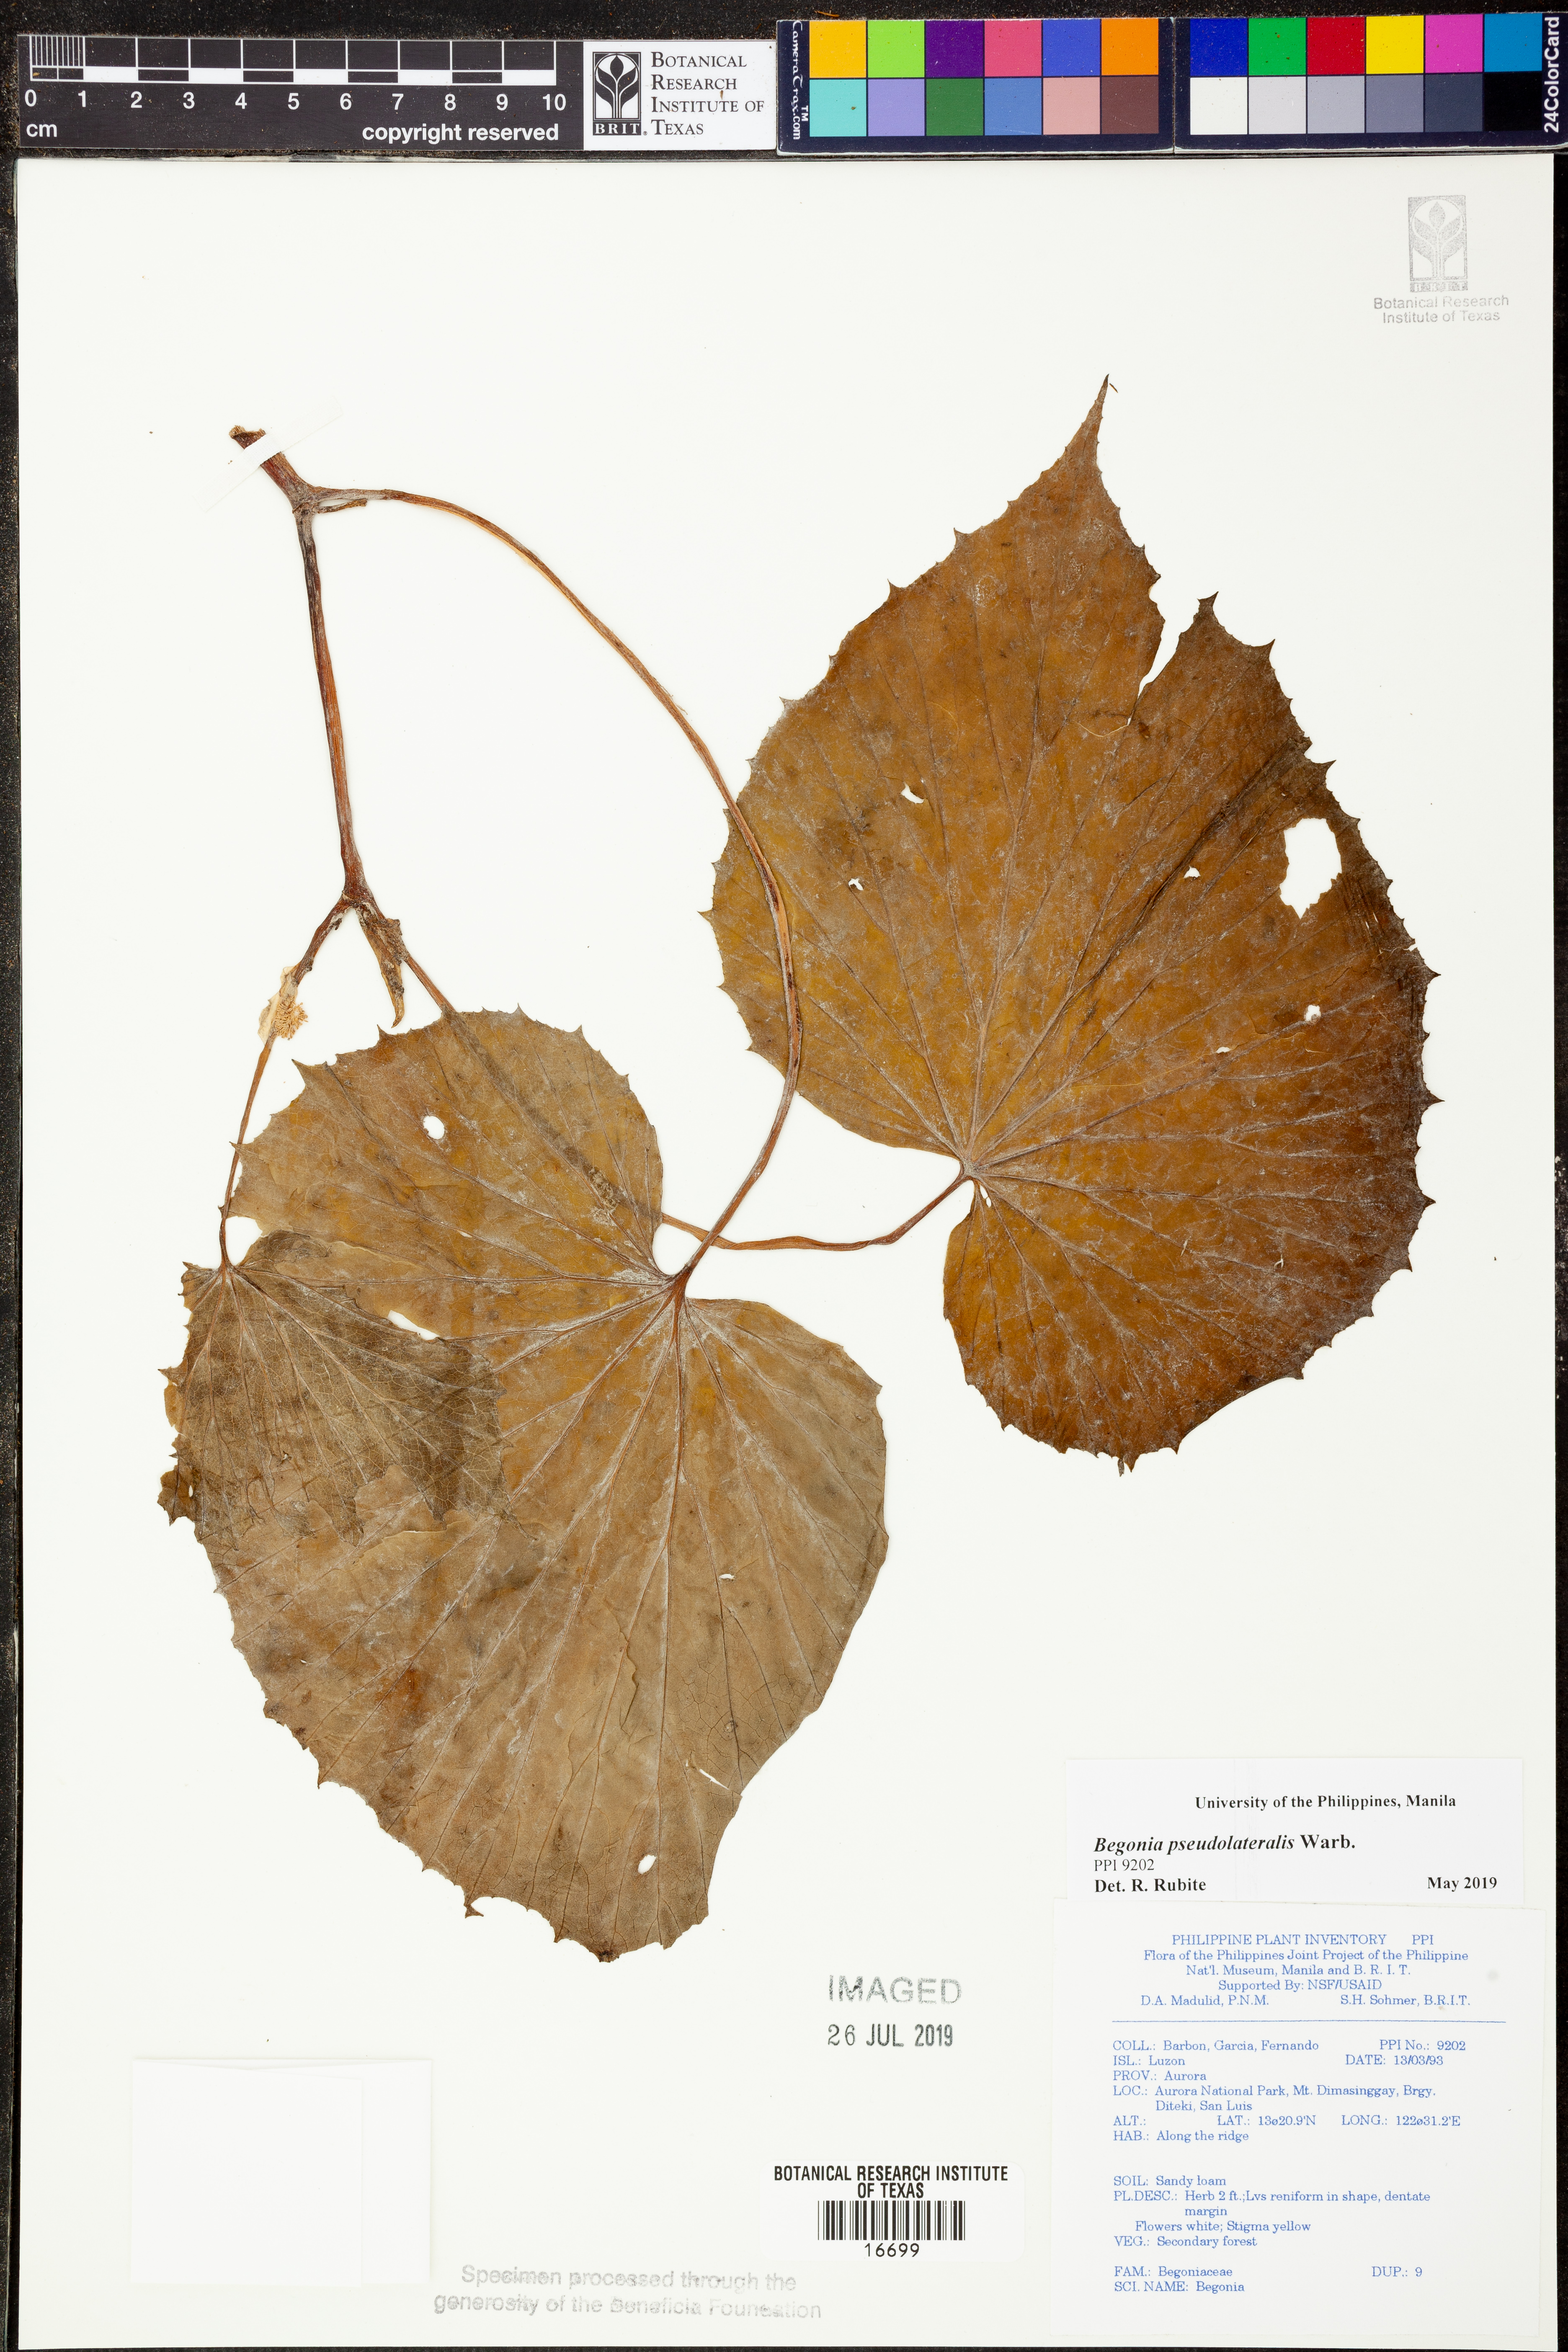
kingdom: Plantae
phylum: Tracheophyta
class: Magnoliopsida
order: Cucurbitales
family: Begoniaceae
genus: Begonia
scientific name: Begonia
